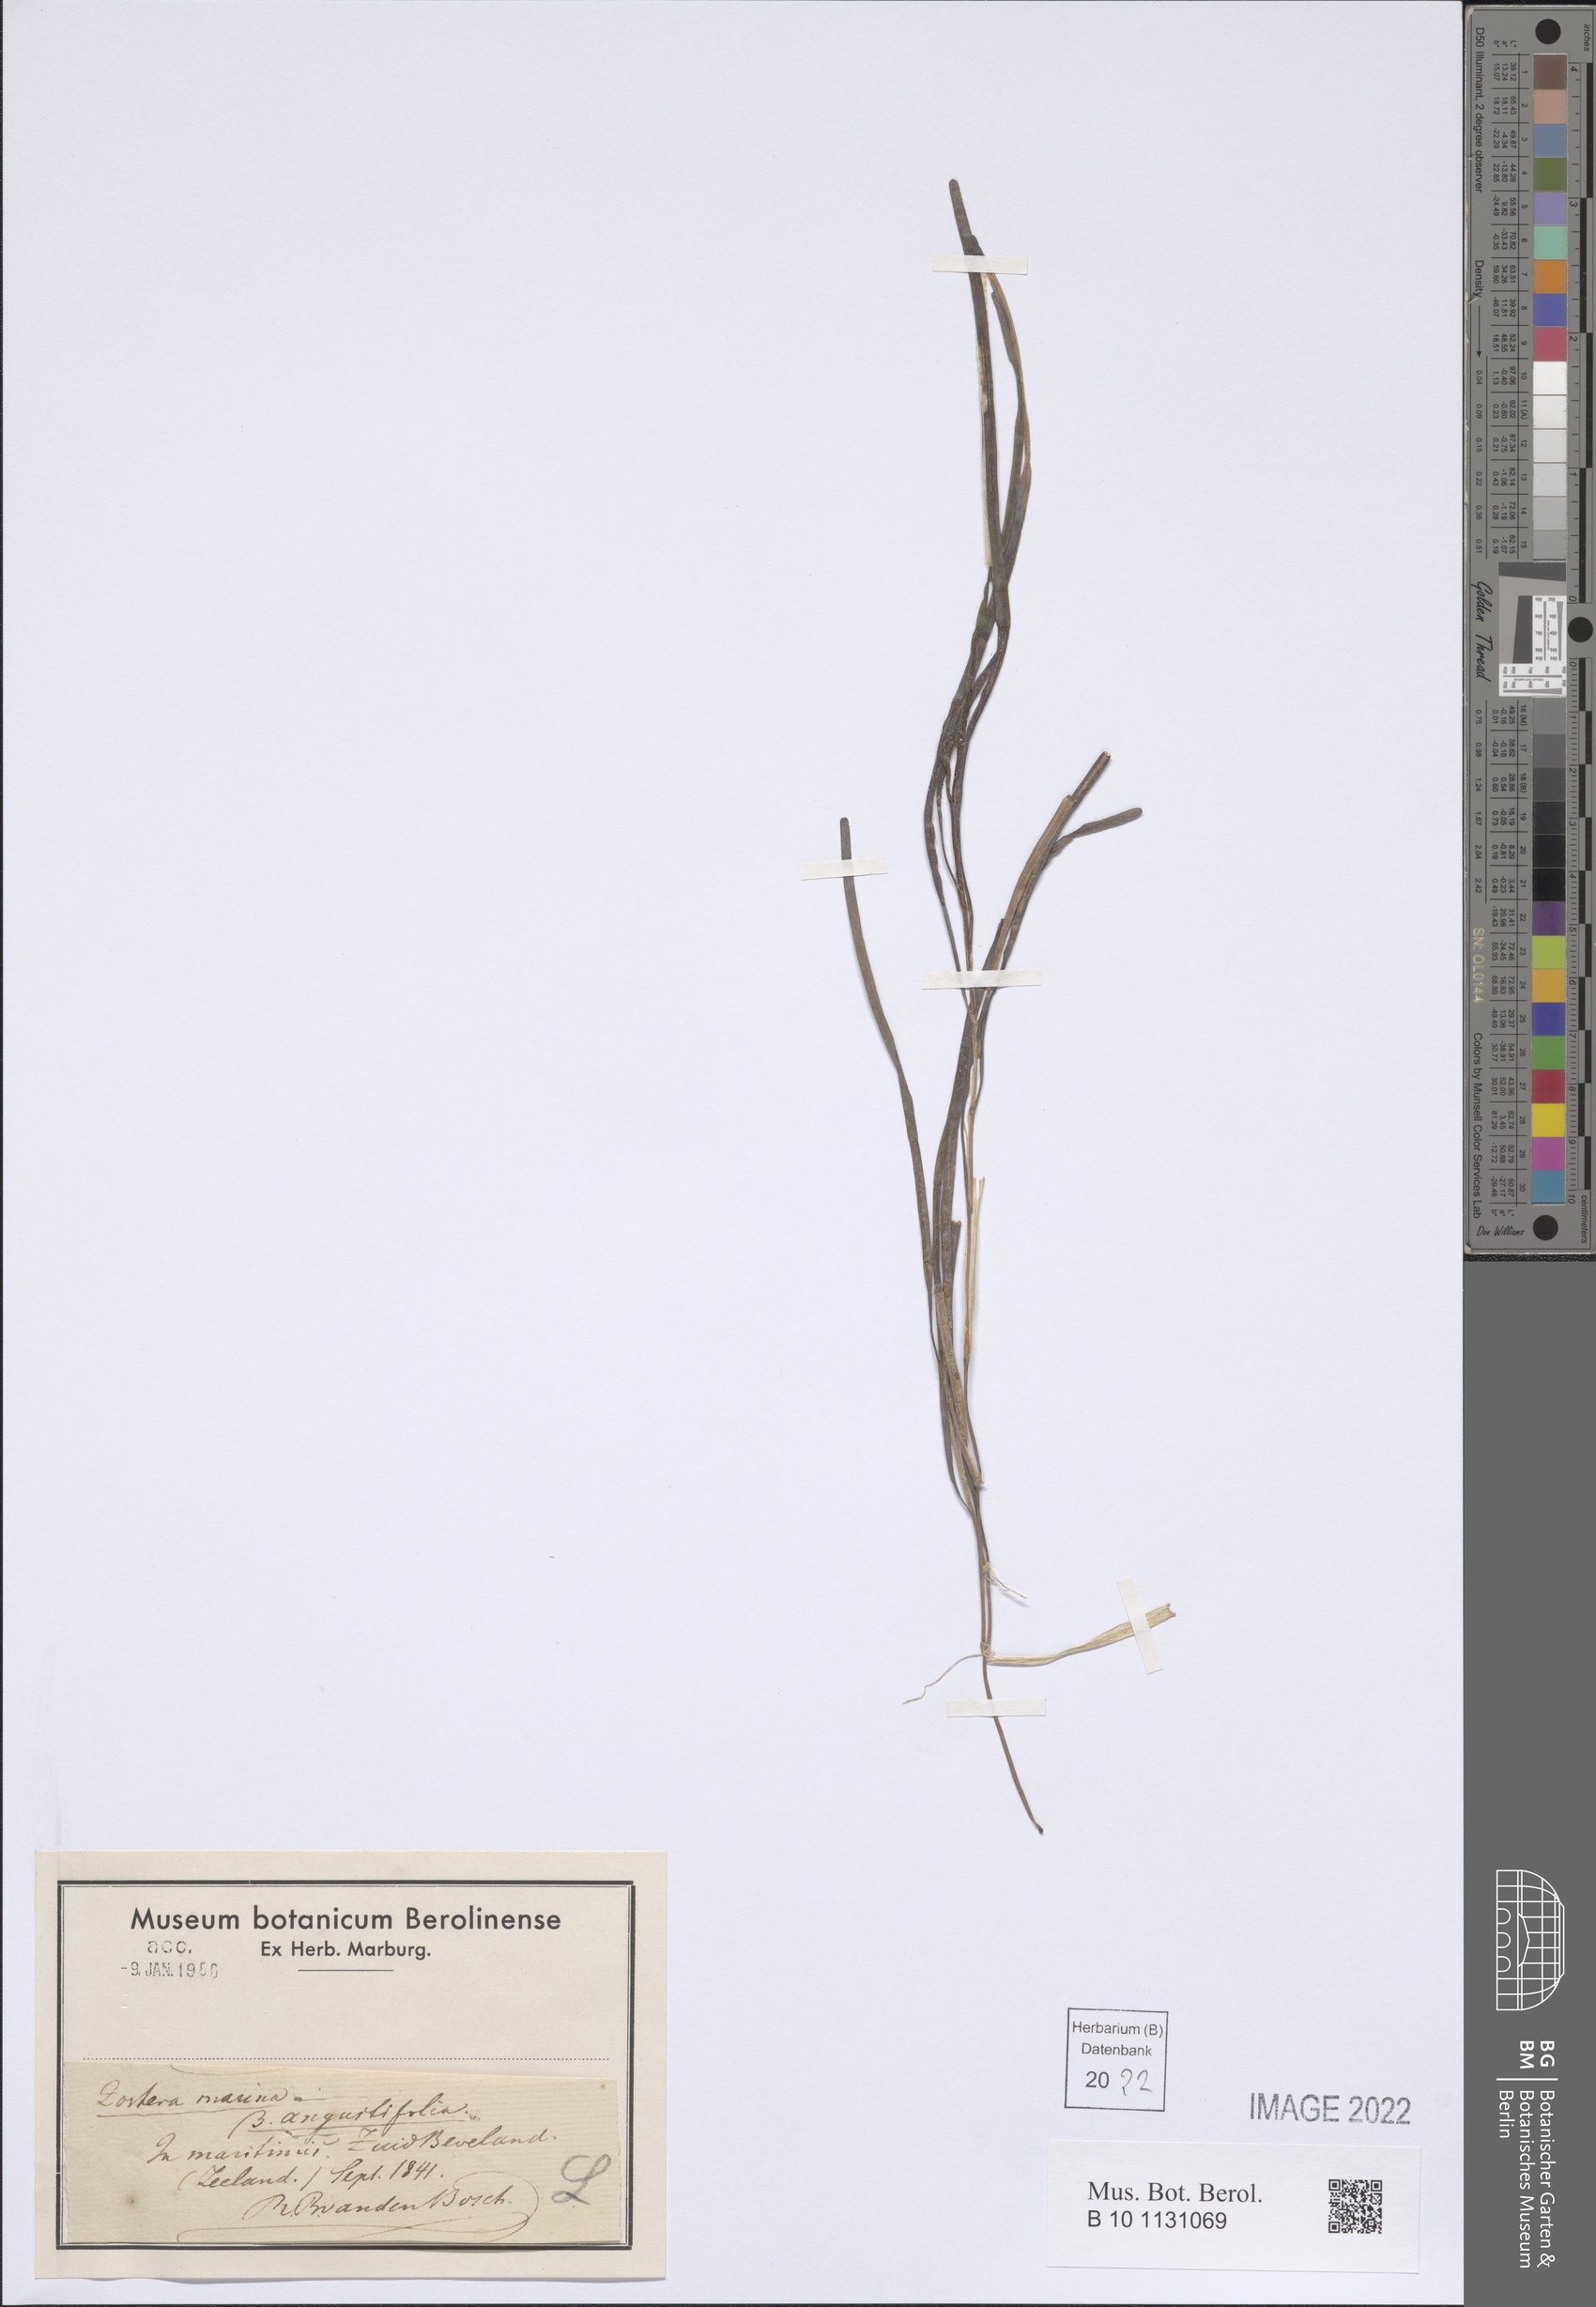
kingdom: Plantae
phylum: Tracheophyta
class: Liliopsida
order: Alismatales
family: Zosteraceae
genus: Zostera
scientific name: Zostera angustifolia
